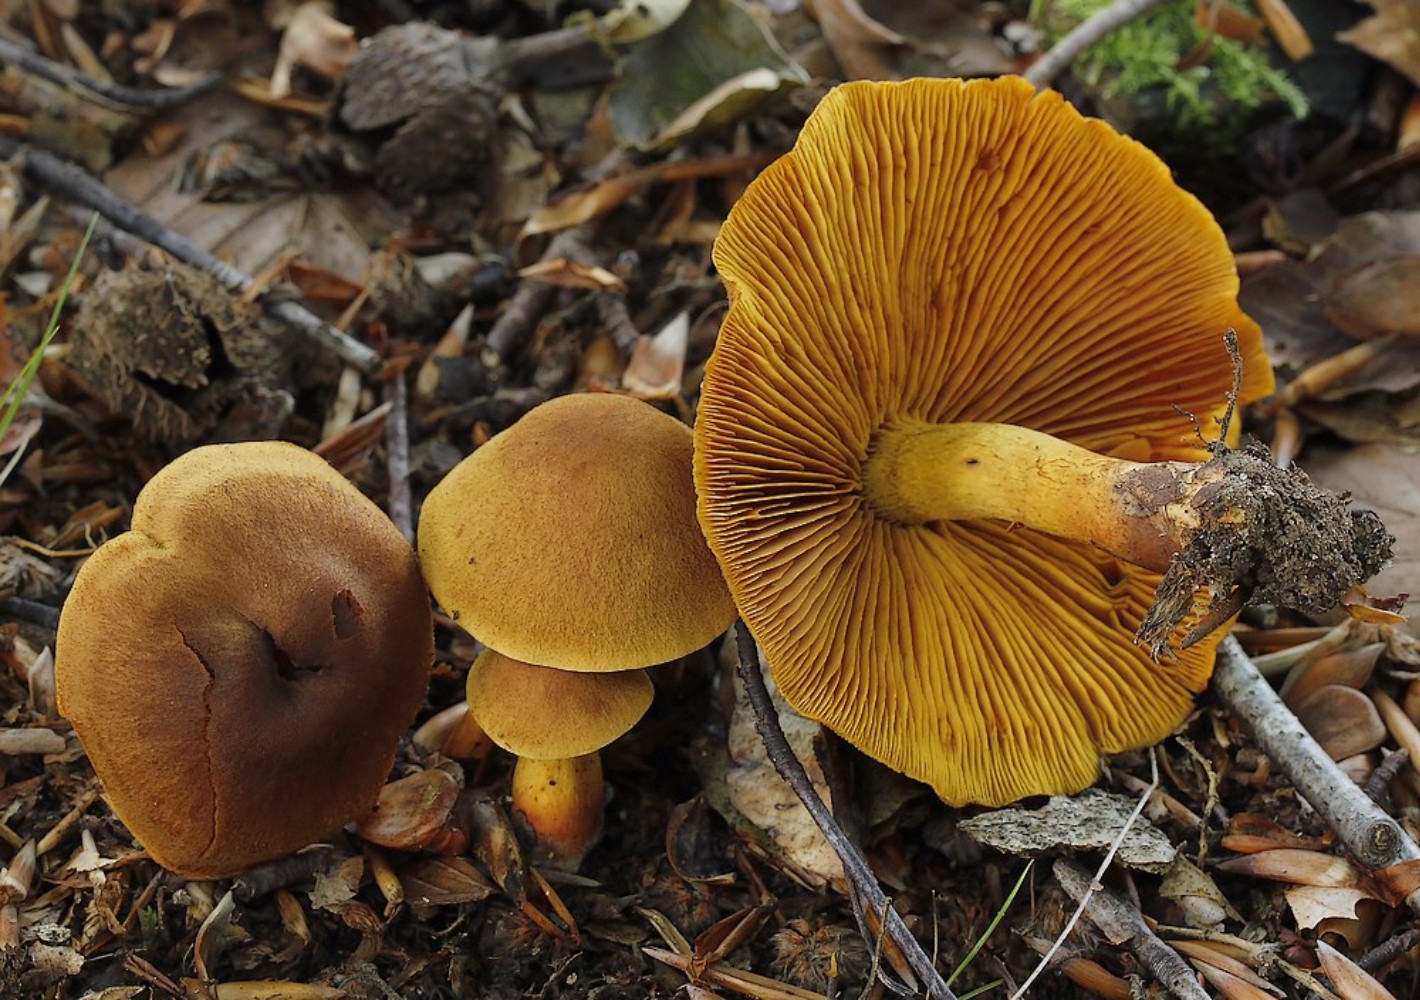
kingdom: Fungi
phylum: Basidiomycota
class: Agaricomycetes
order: Agaricales
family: Cortinariaceae
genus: Cortinarius
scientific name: Cortinarius cinnamomeus
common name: kanel-slørhat
